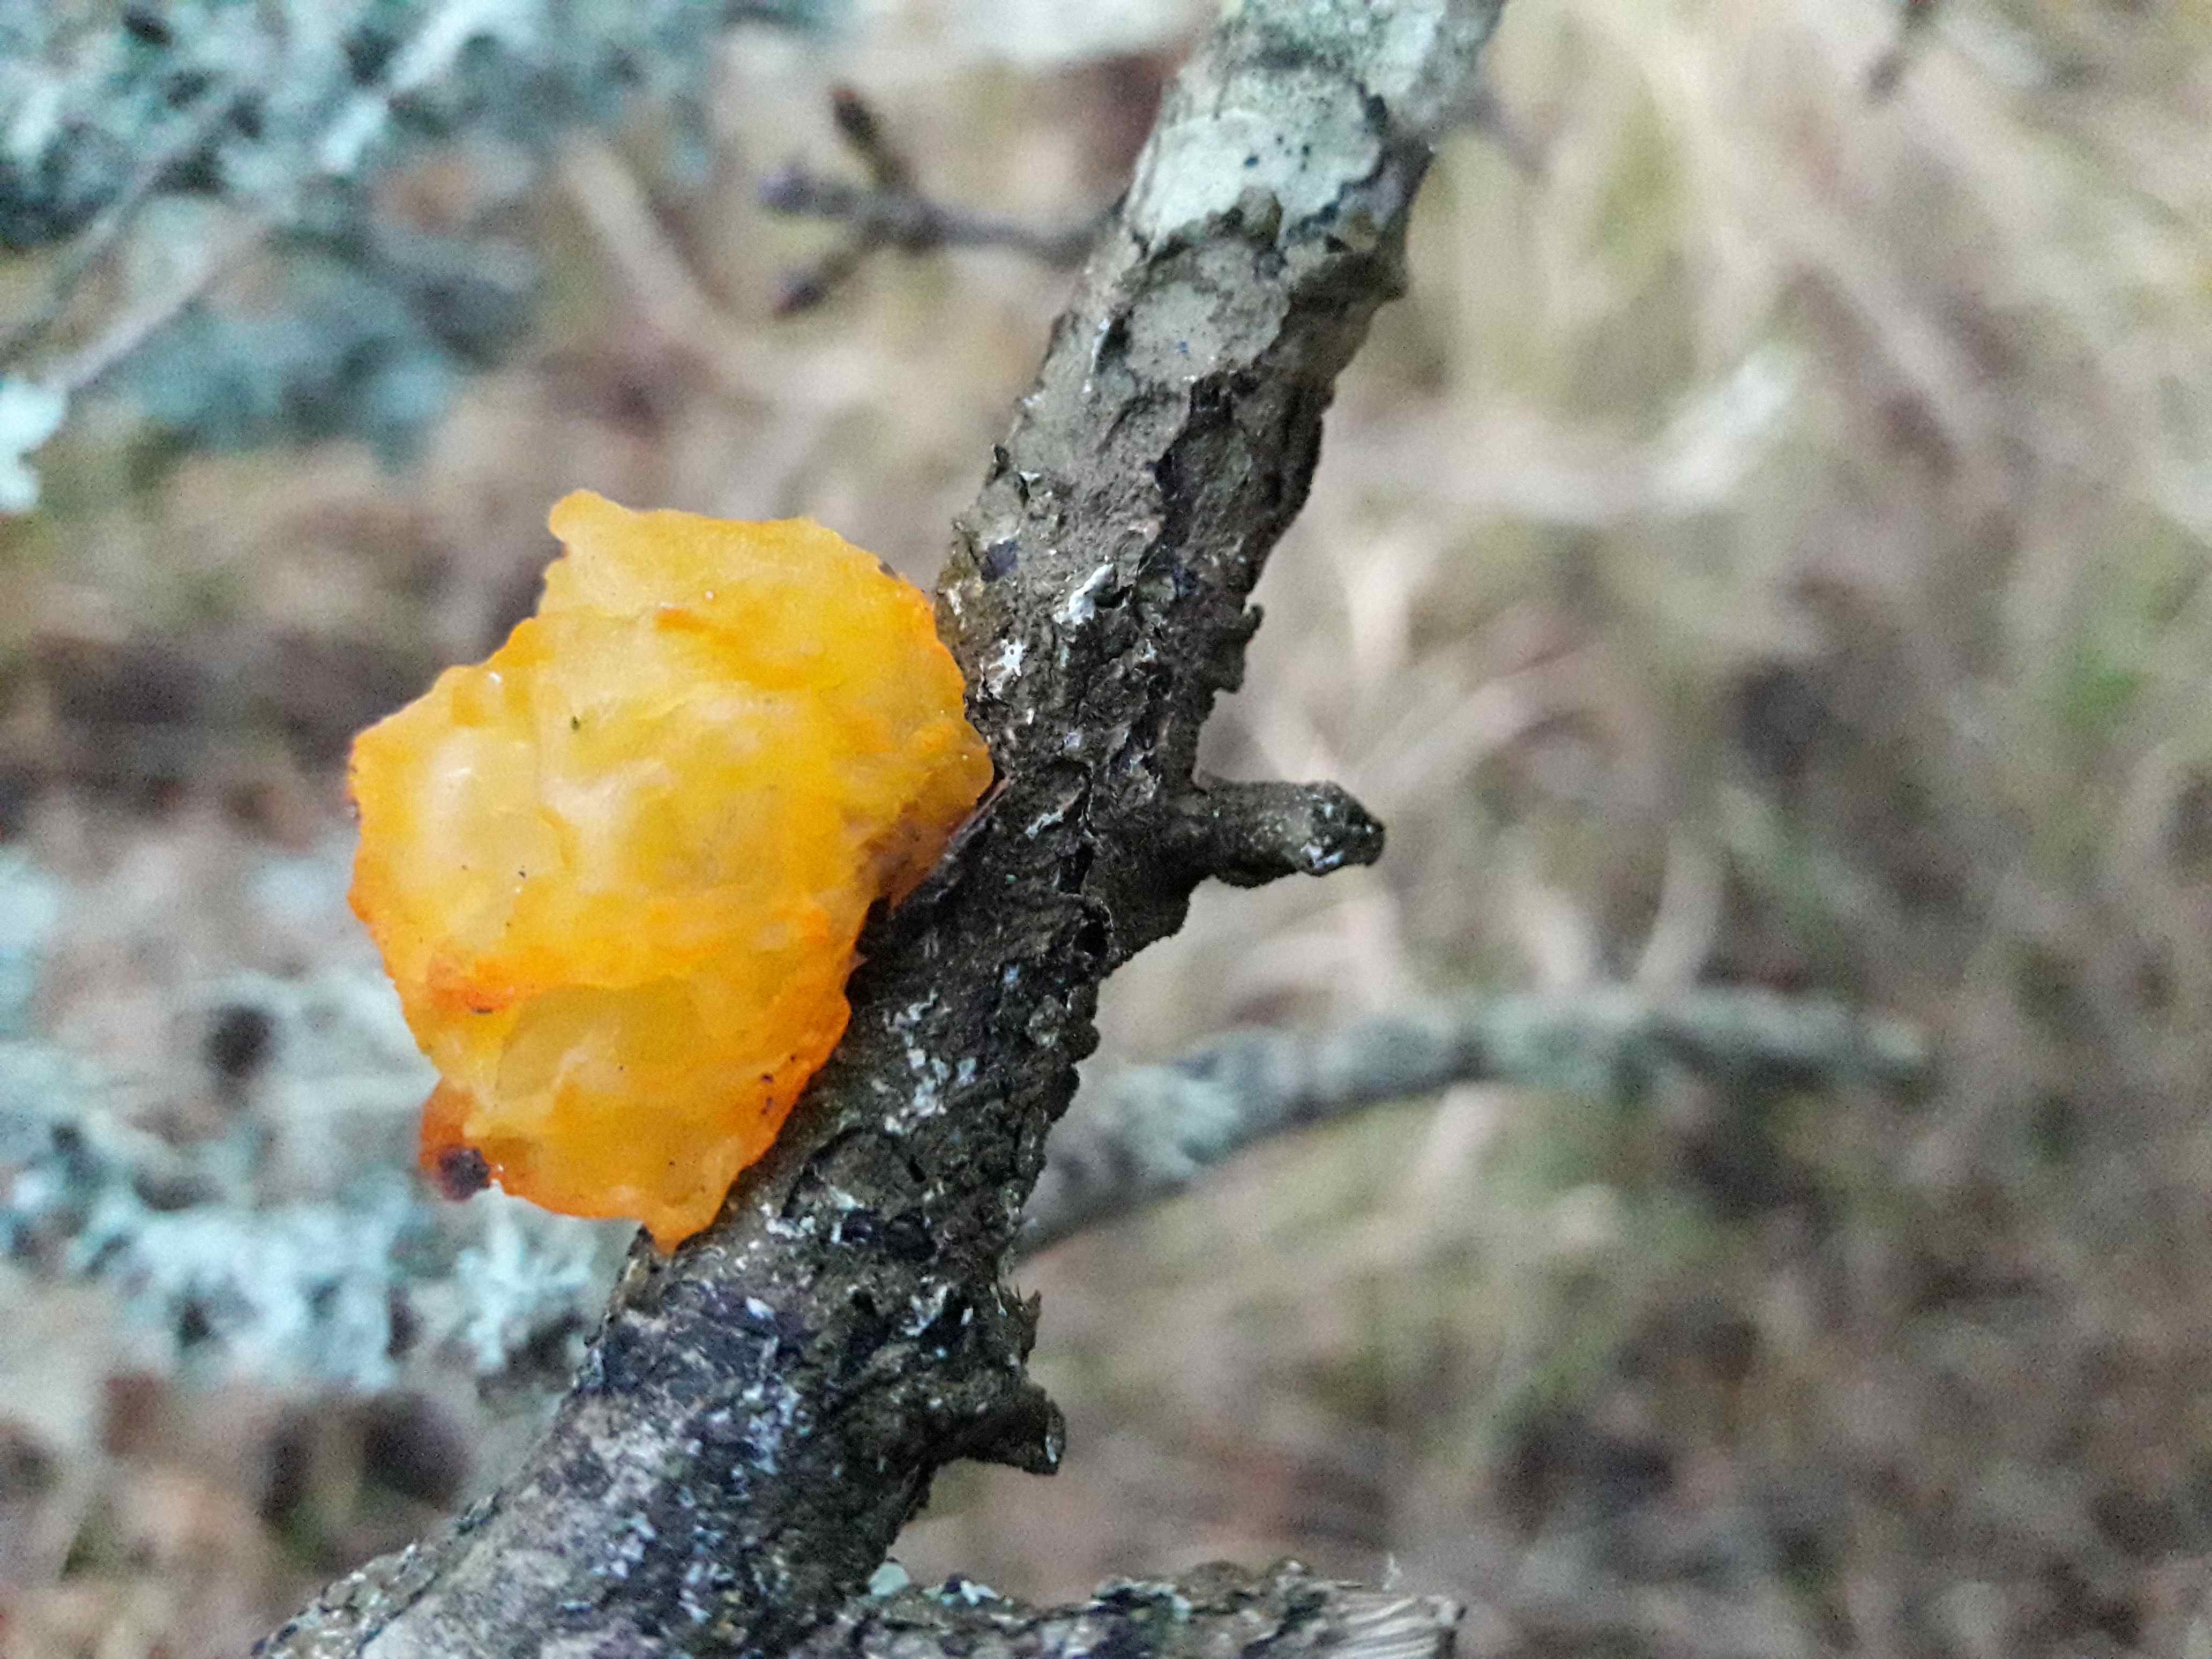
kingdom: Fungi
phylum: Basidiomycota
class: Tremellomycetes
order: Tremellales
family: Tremellaceae
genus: Tremella
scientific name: Tremella mesenterica
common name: gul bævresvamp
